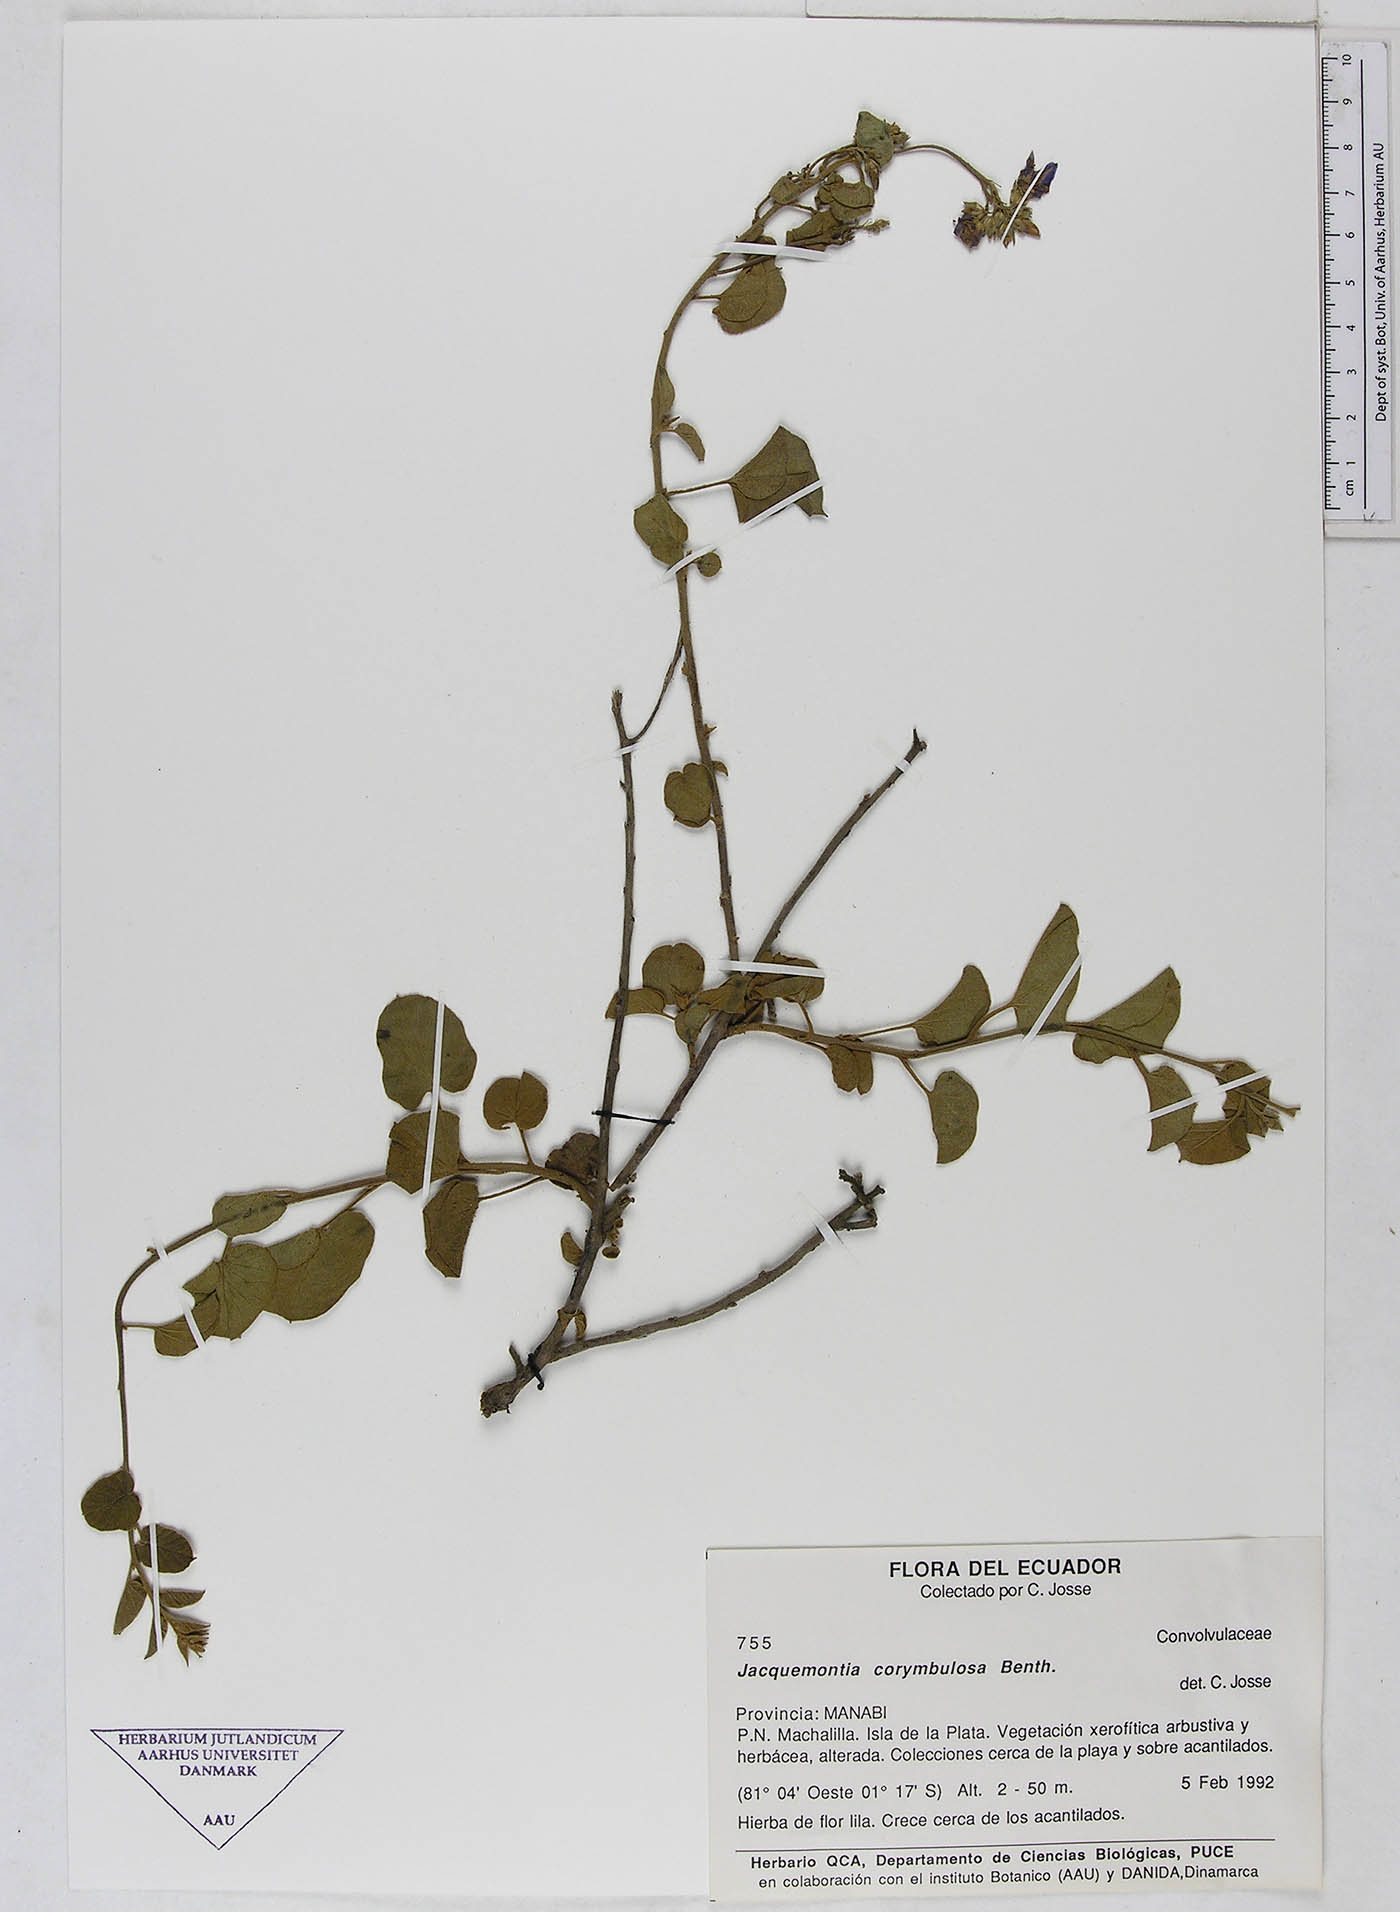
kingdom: Plantae
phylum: Tracheophyta
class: Magnoliopsida
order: Solanales
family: Convolvulaceae
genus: Jacquemontia
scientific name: Jacquemontia corymbulosa
